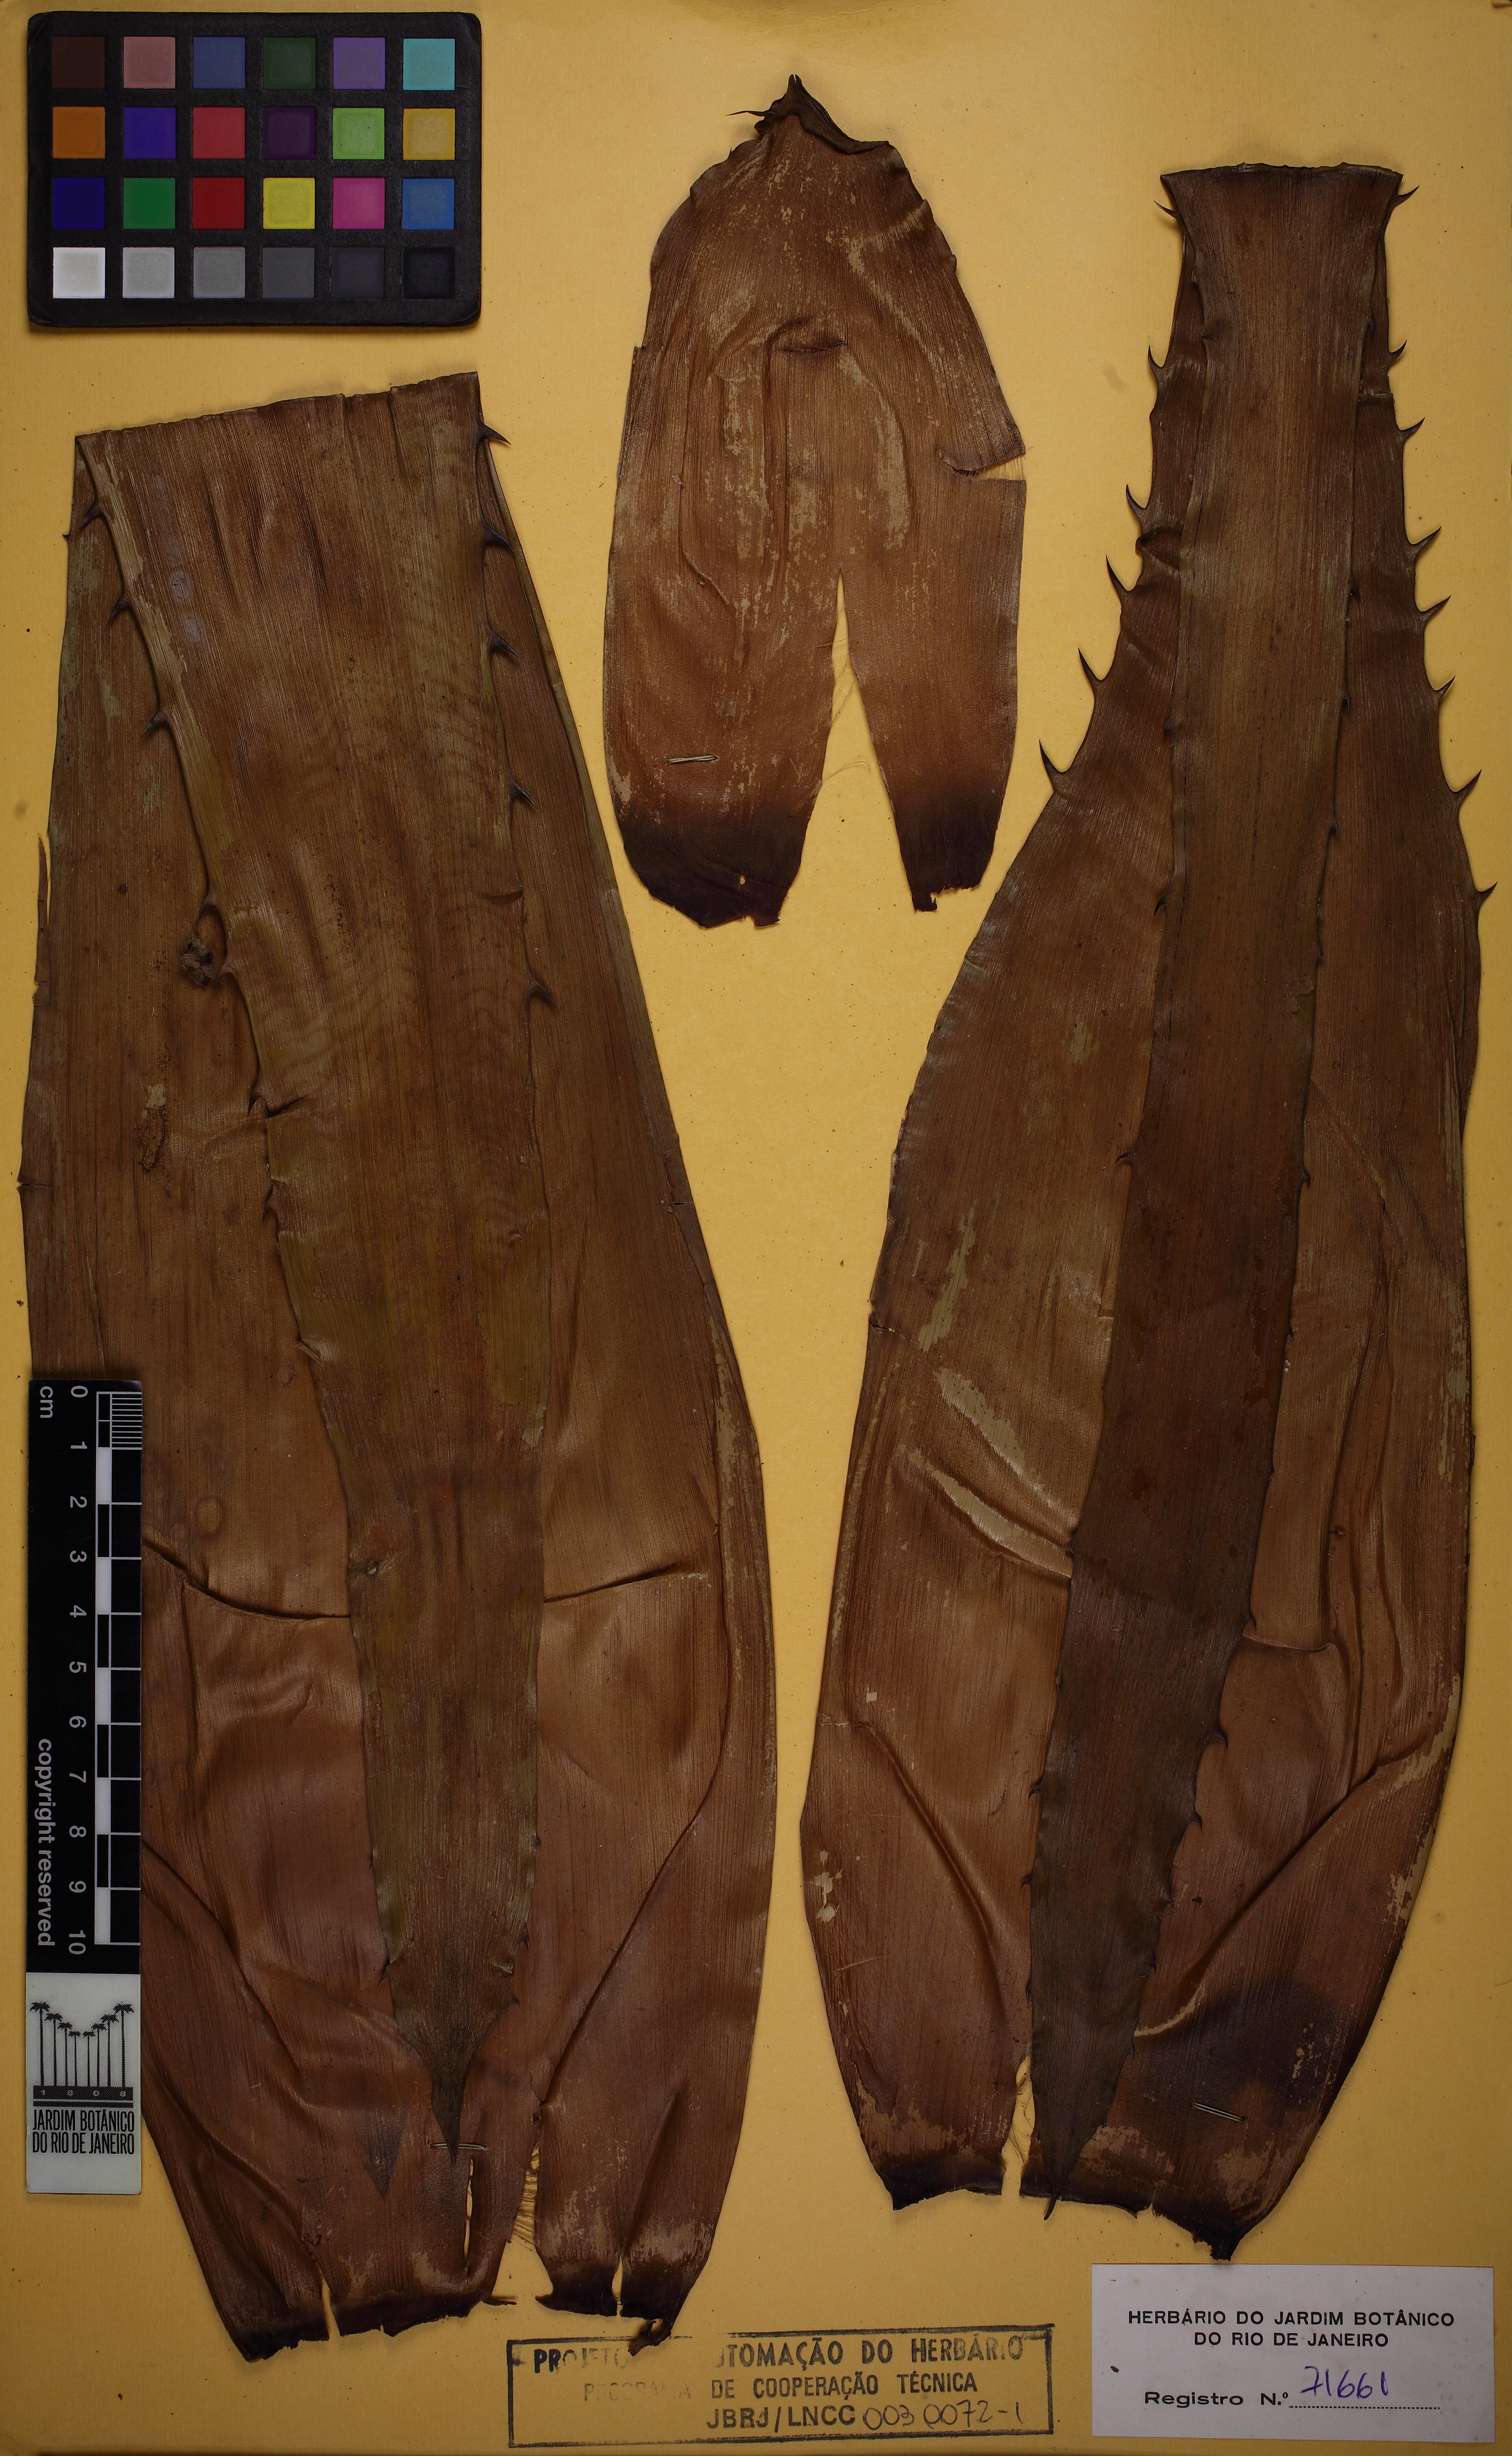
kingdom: Plantae
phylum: Tracheophyta
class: Liliopsida
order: Poales
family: Bromeliaceae
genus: Aechmea
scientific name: Aechmea bromeliifolia
